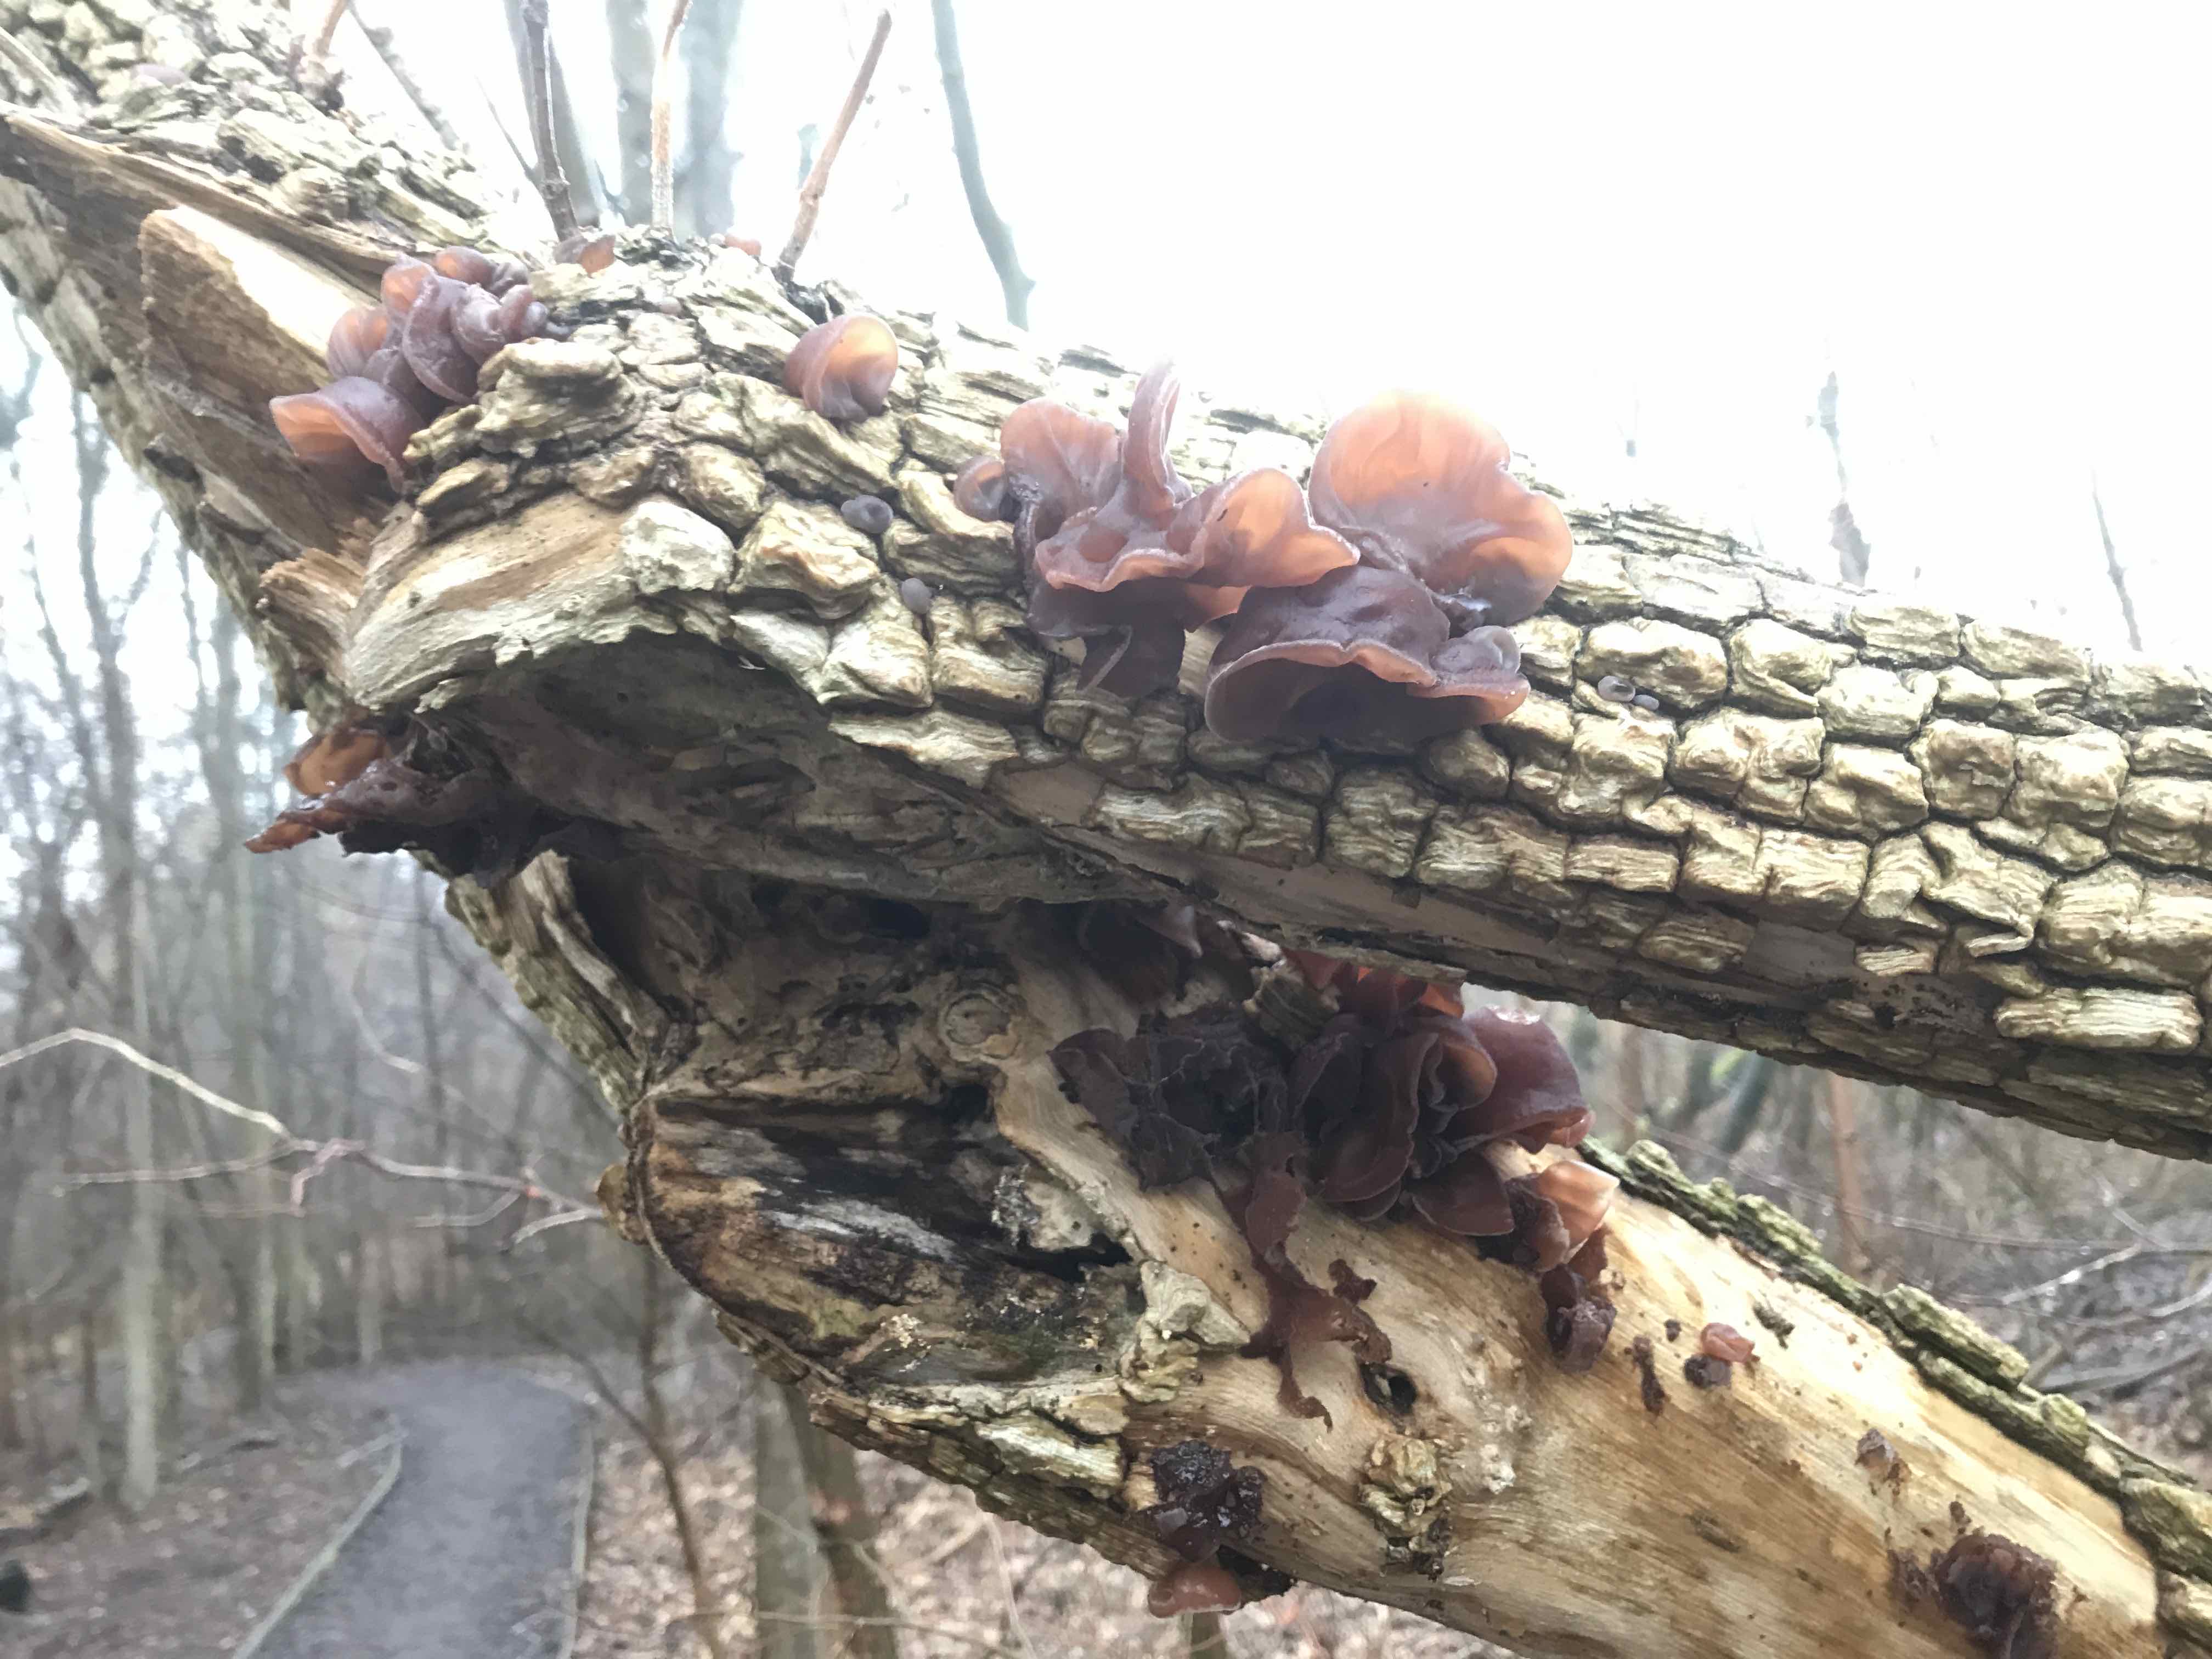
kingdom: Fungi
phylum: Basidiomycota
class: Agaricomycetes
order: Auriculariales
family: Auriculariaceae
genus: Auricularia
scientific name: Auricularia auricula-judae
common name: almindelig judasøre
